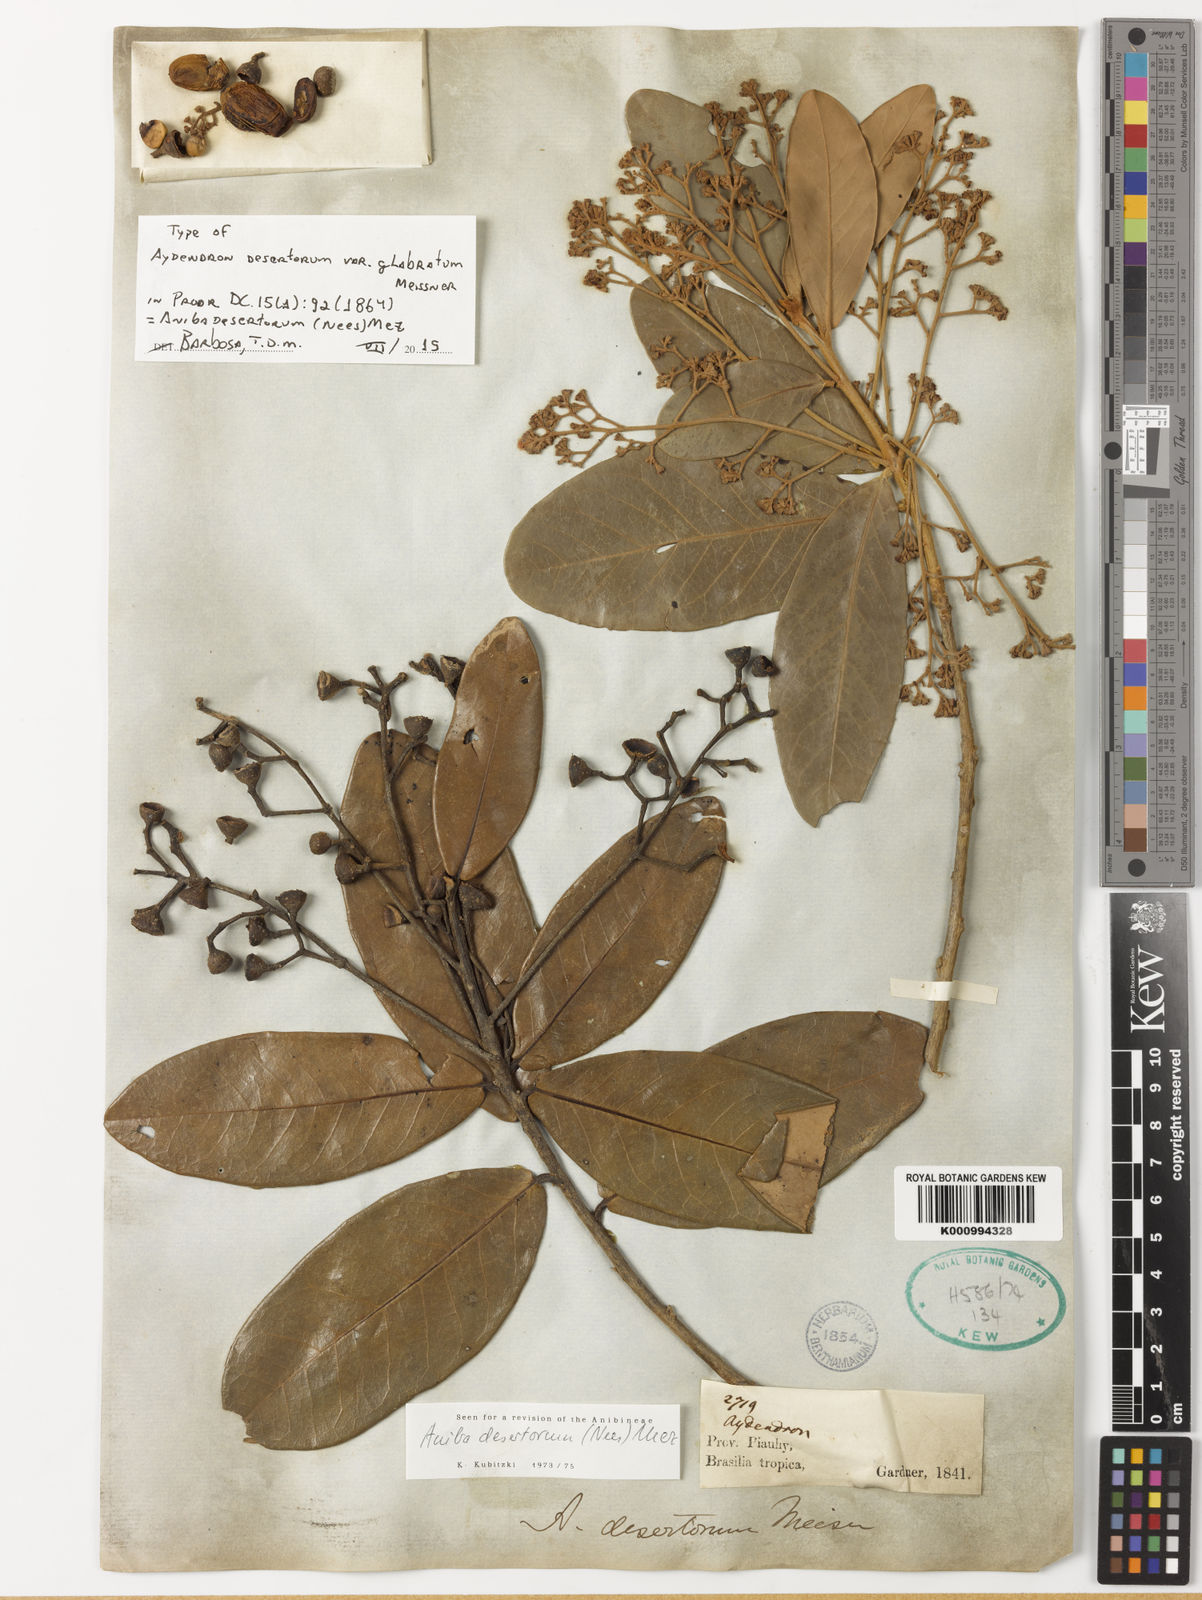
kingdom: Plantae
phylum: Tracheophyta
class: Magnoliopsida
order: Laurales
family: Lauraceae
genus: Aniba
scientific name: Aniba
